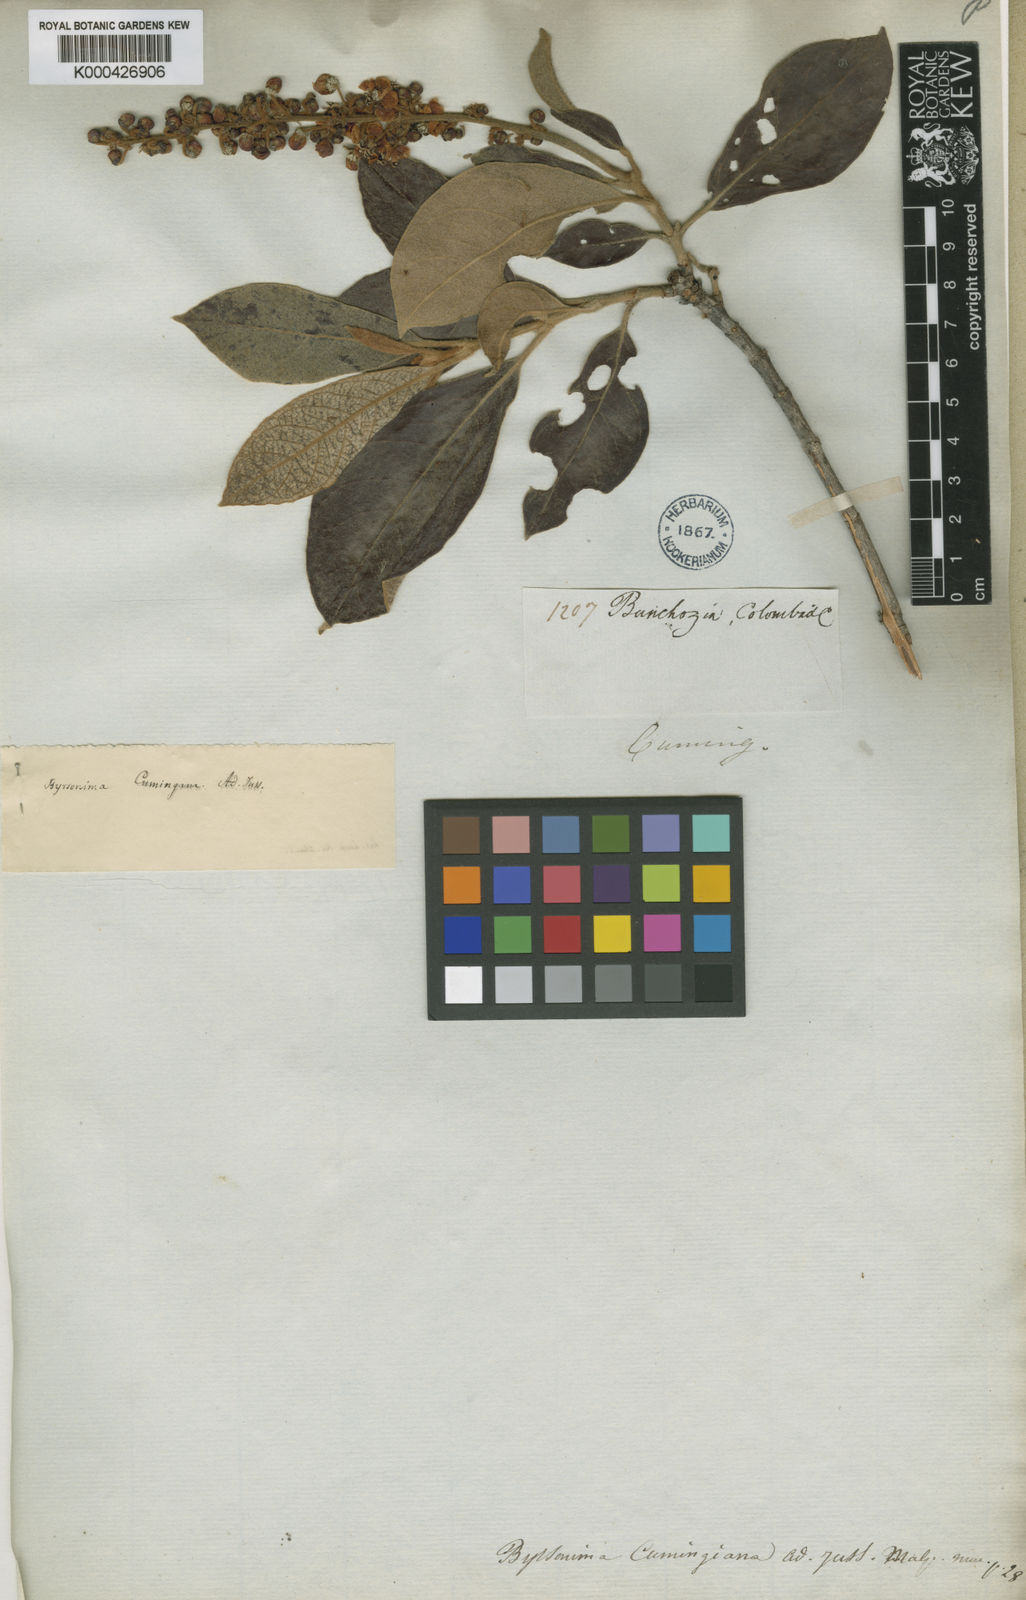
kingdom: Plantae
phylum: Tracheophyta
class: Magnoliopsida
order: Malpighiales
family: Malpighiaceae
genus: Byrsonima
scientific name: Byrsonima crassifolia
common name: Golden spoon
